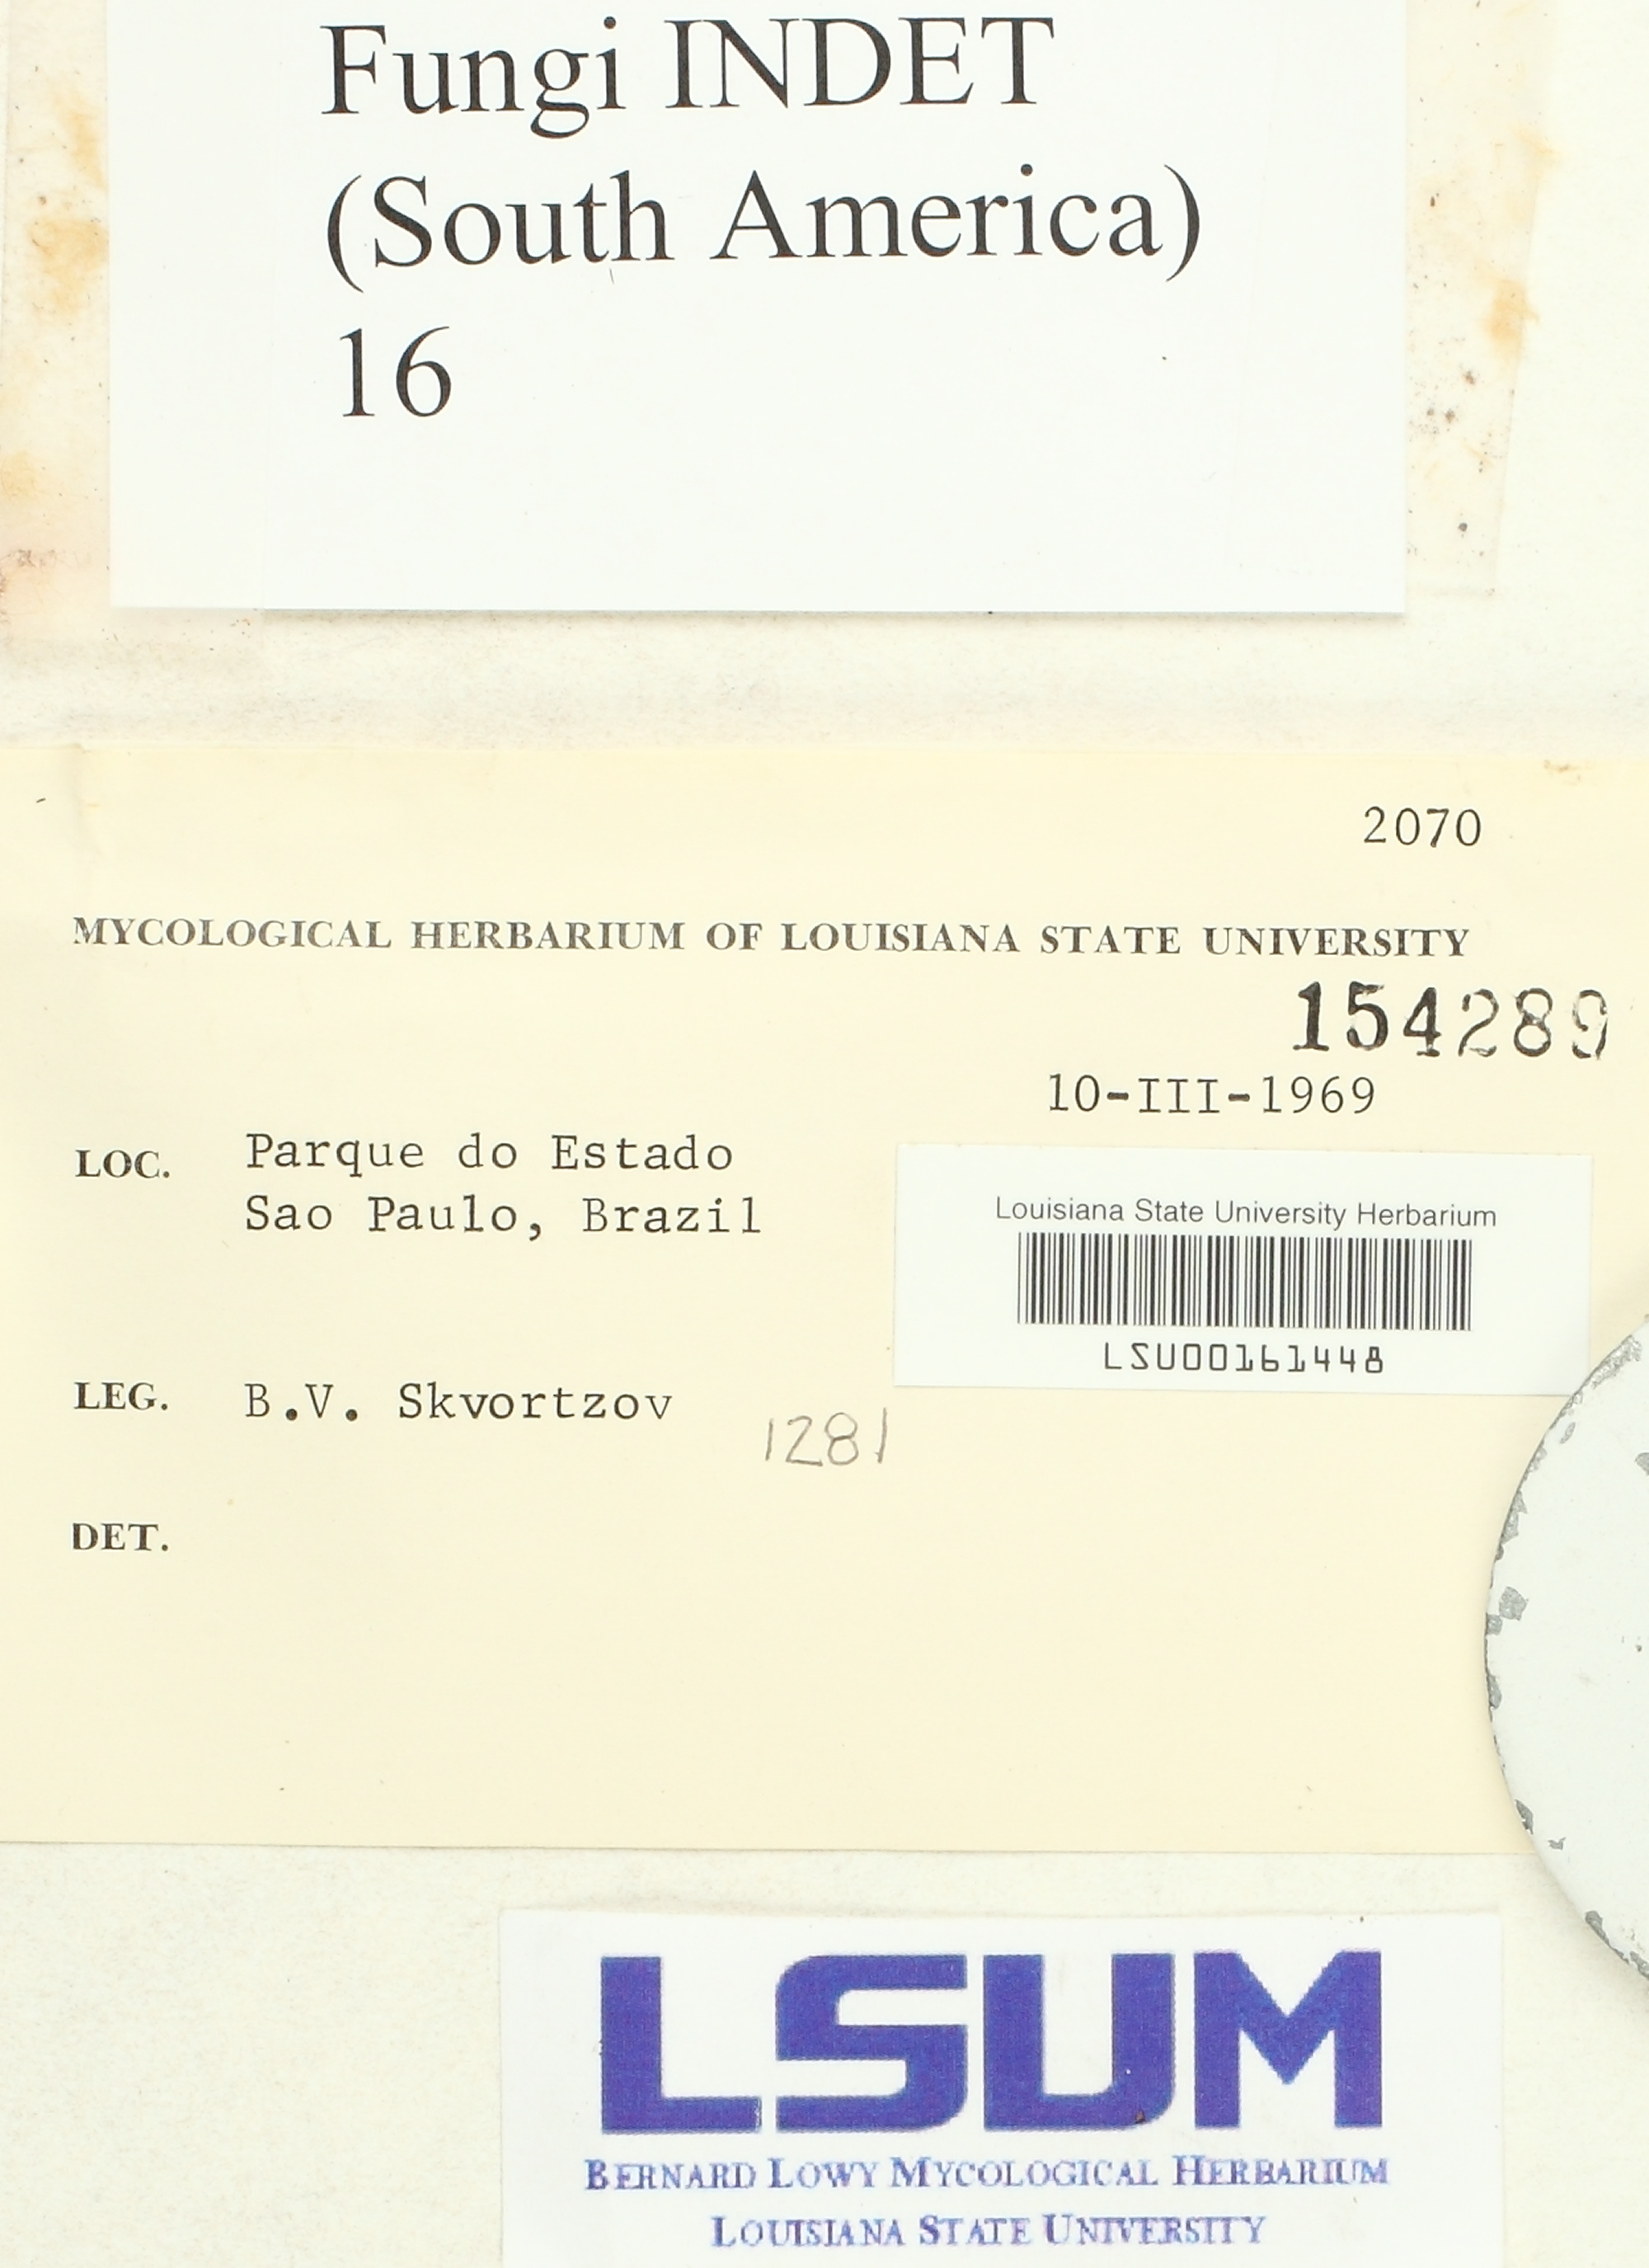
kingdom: Fungi
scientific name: Fungi
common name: Fungi
